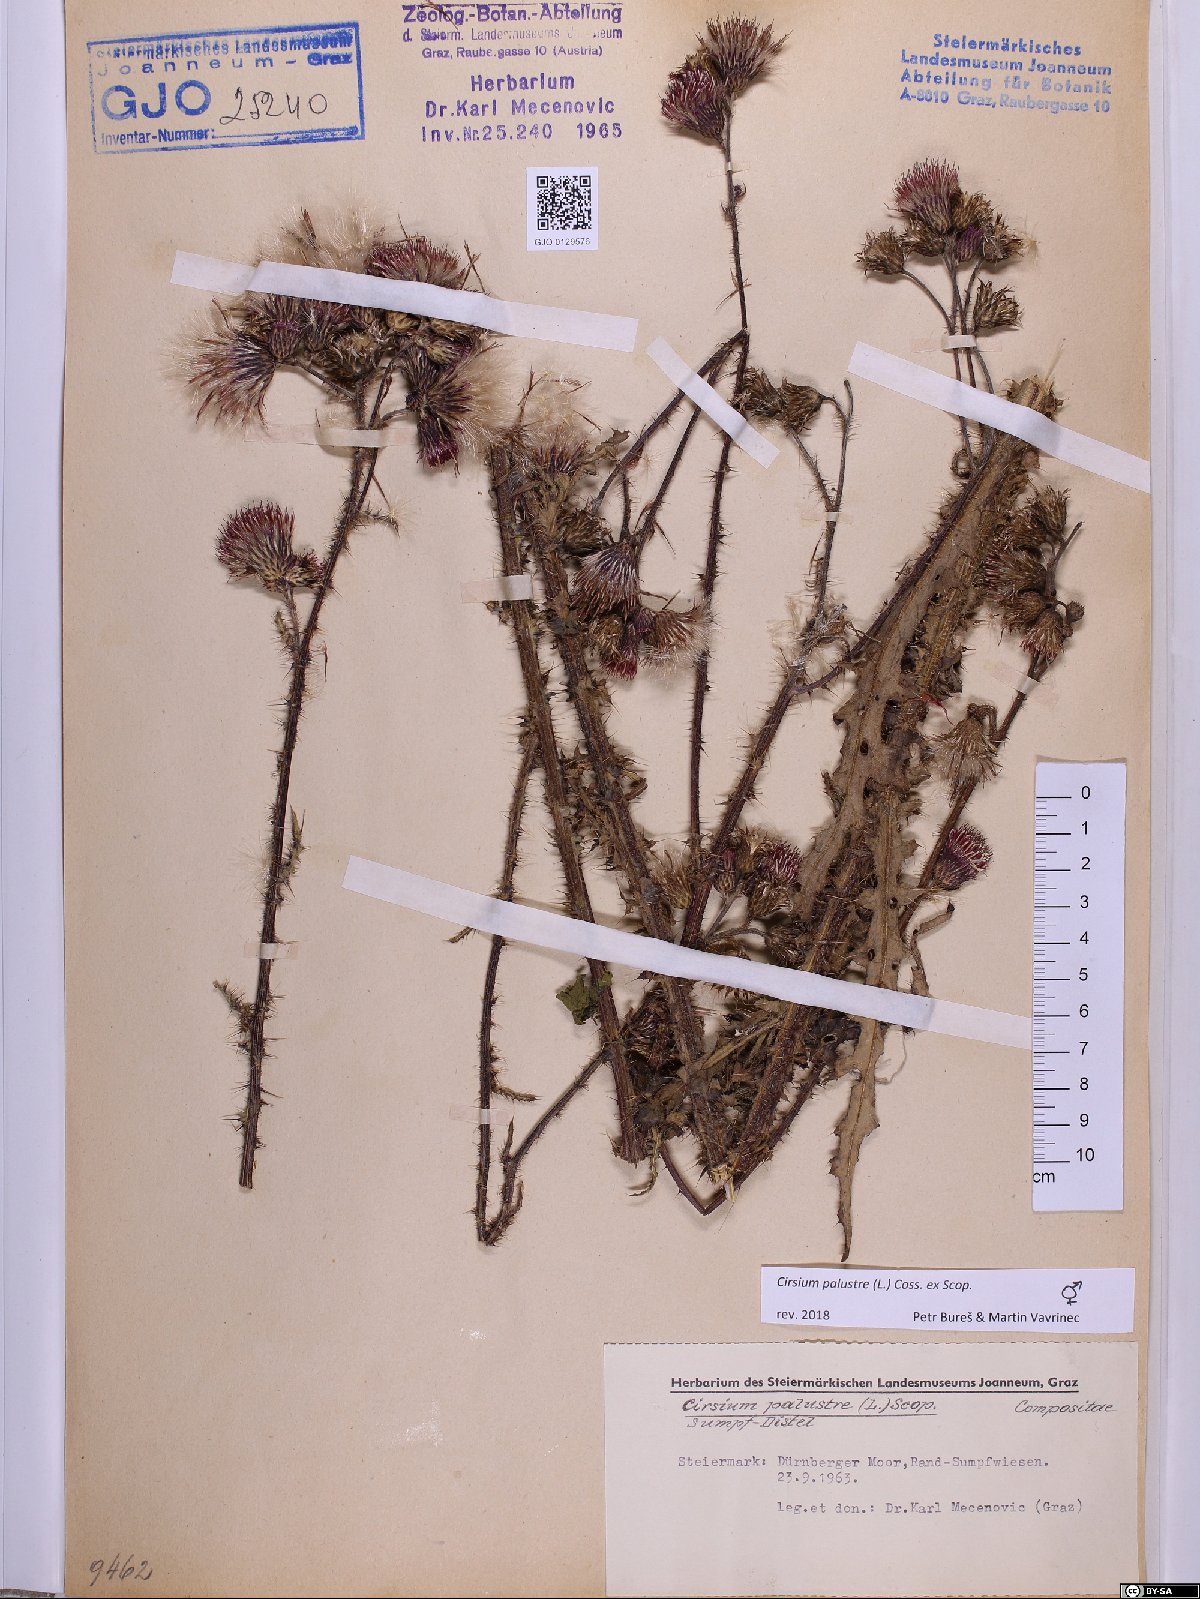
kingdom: Plantae
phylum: Tracheophyta
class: Magnoliopsida
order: Asterales
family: Asteraceae
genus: Cirsium
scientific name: Cirsium palustre
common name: Marsh thistle
